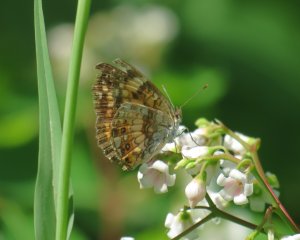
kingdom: Animalia
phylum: Arthropoda
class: Insecta
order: Lepidoptera
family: Nymphalidae
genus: Chlosyne
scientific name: Chlosyne nycteis
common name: Silvery Checkerspot
